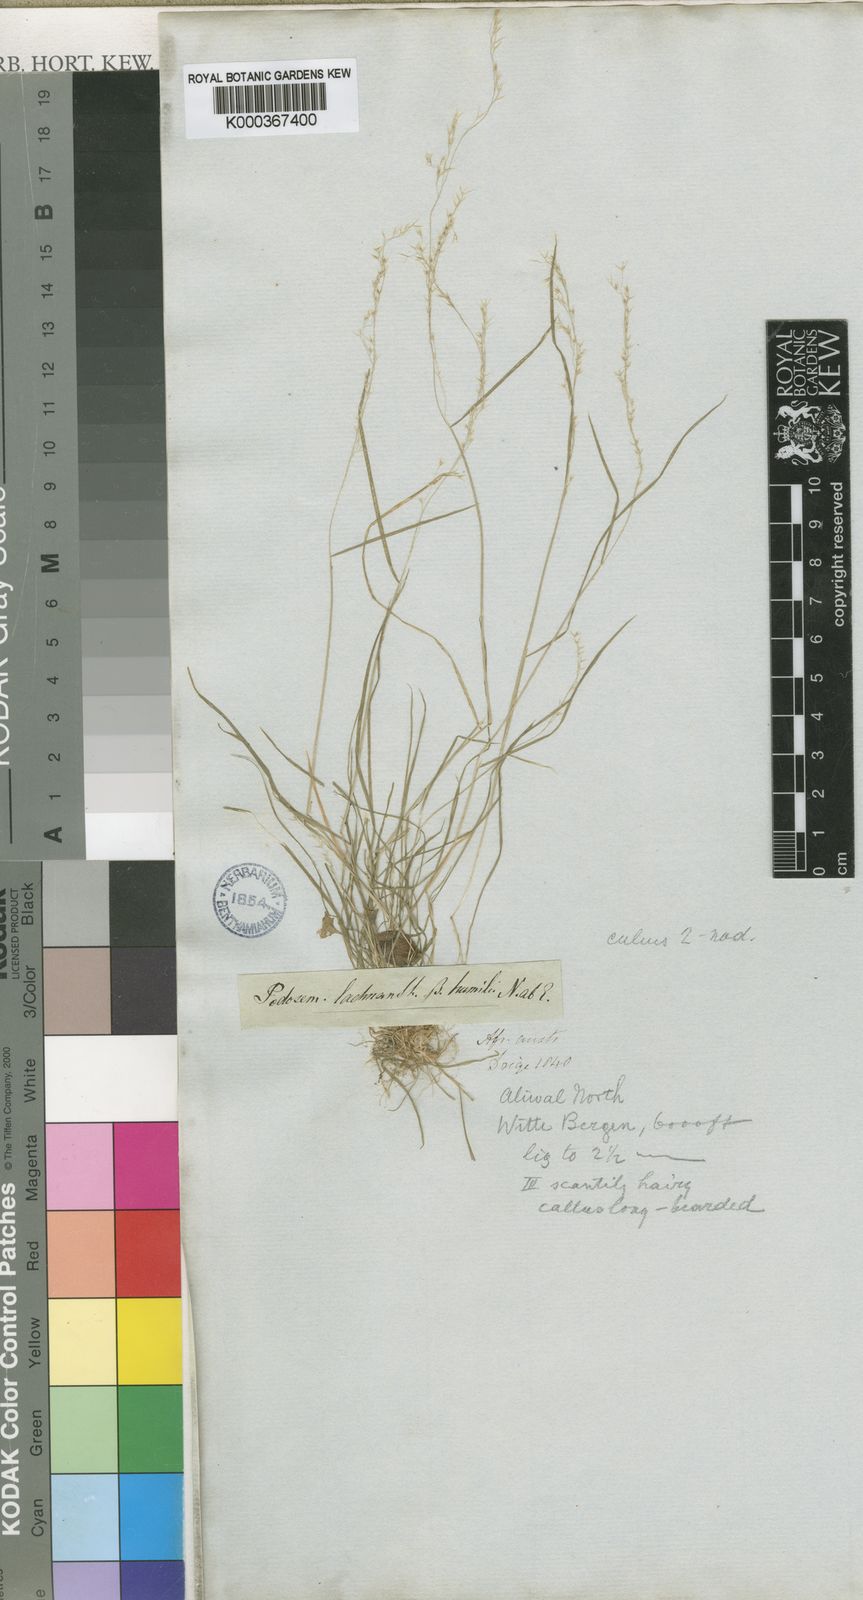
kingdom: Plantae
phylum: Tracheophyta
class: Liliopsida
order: Poales
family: Poaceae
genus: Lachnagrostis
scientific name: Lachnagrostis lachnantha
